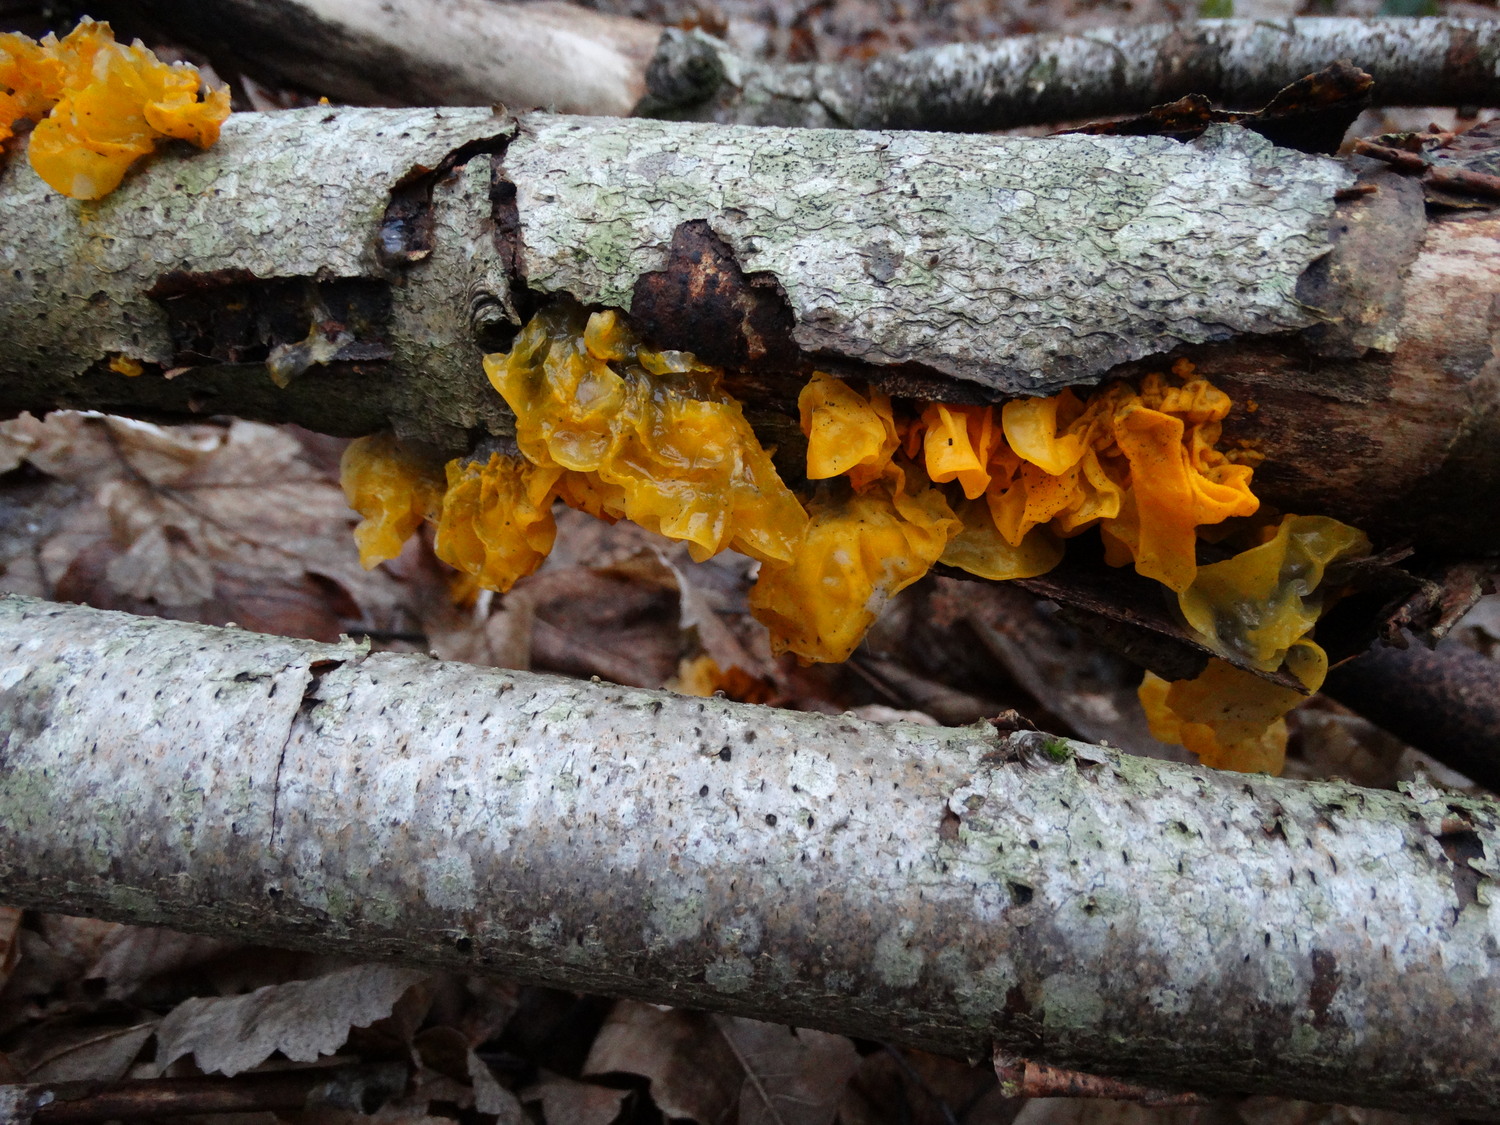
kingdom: Fungi
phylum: Basidiomycota
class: Tremellomycetes
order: Tremellales
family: Tremellaceae
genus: Tremella
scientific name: Tremella mesenterica
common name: gul bævresvamp
